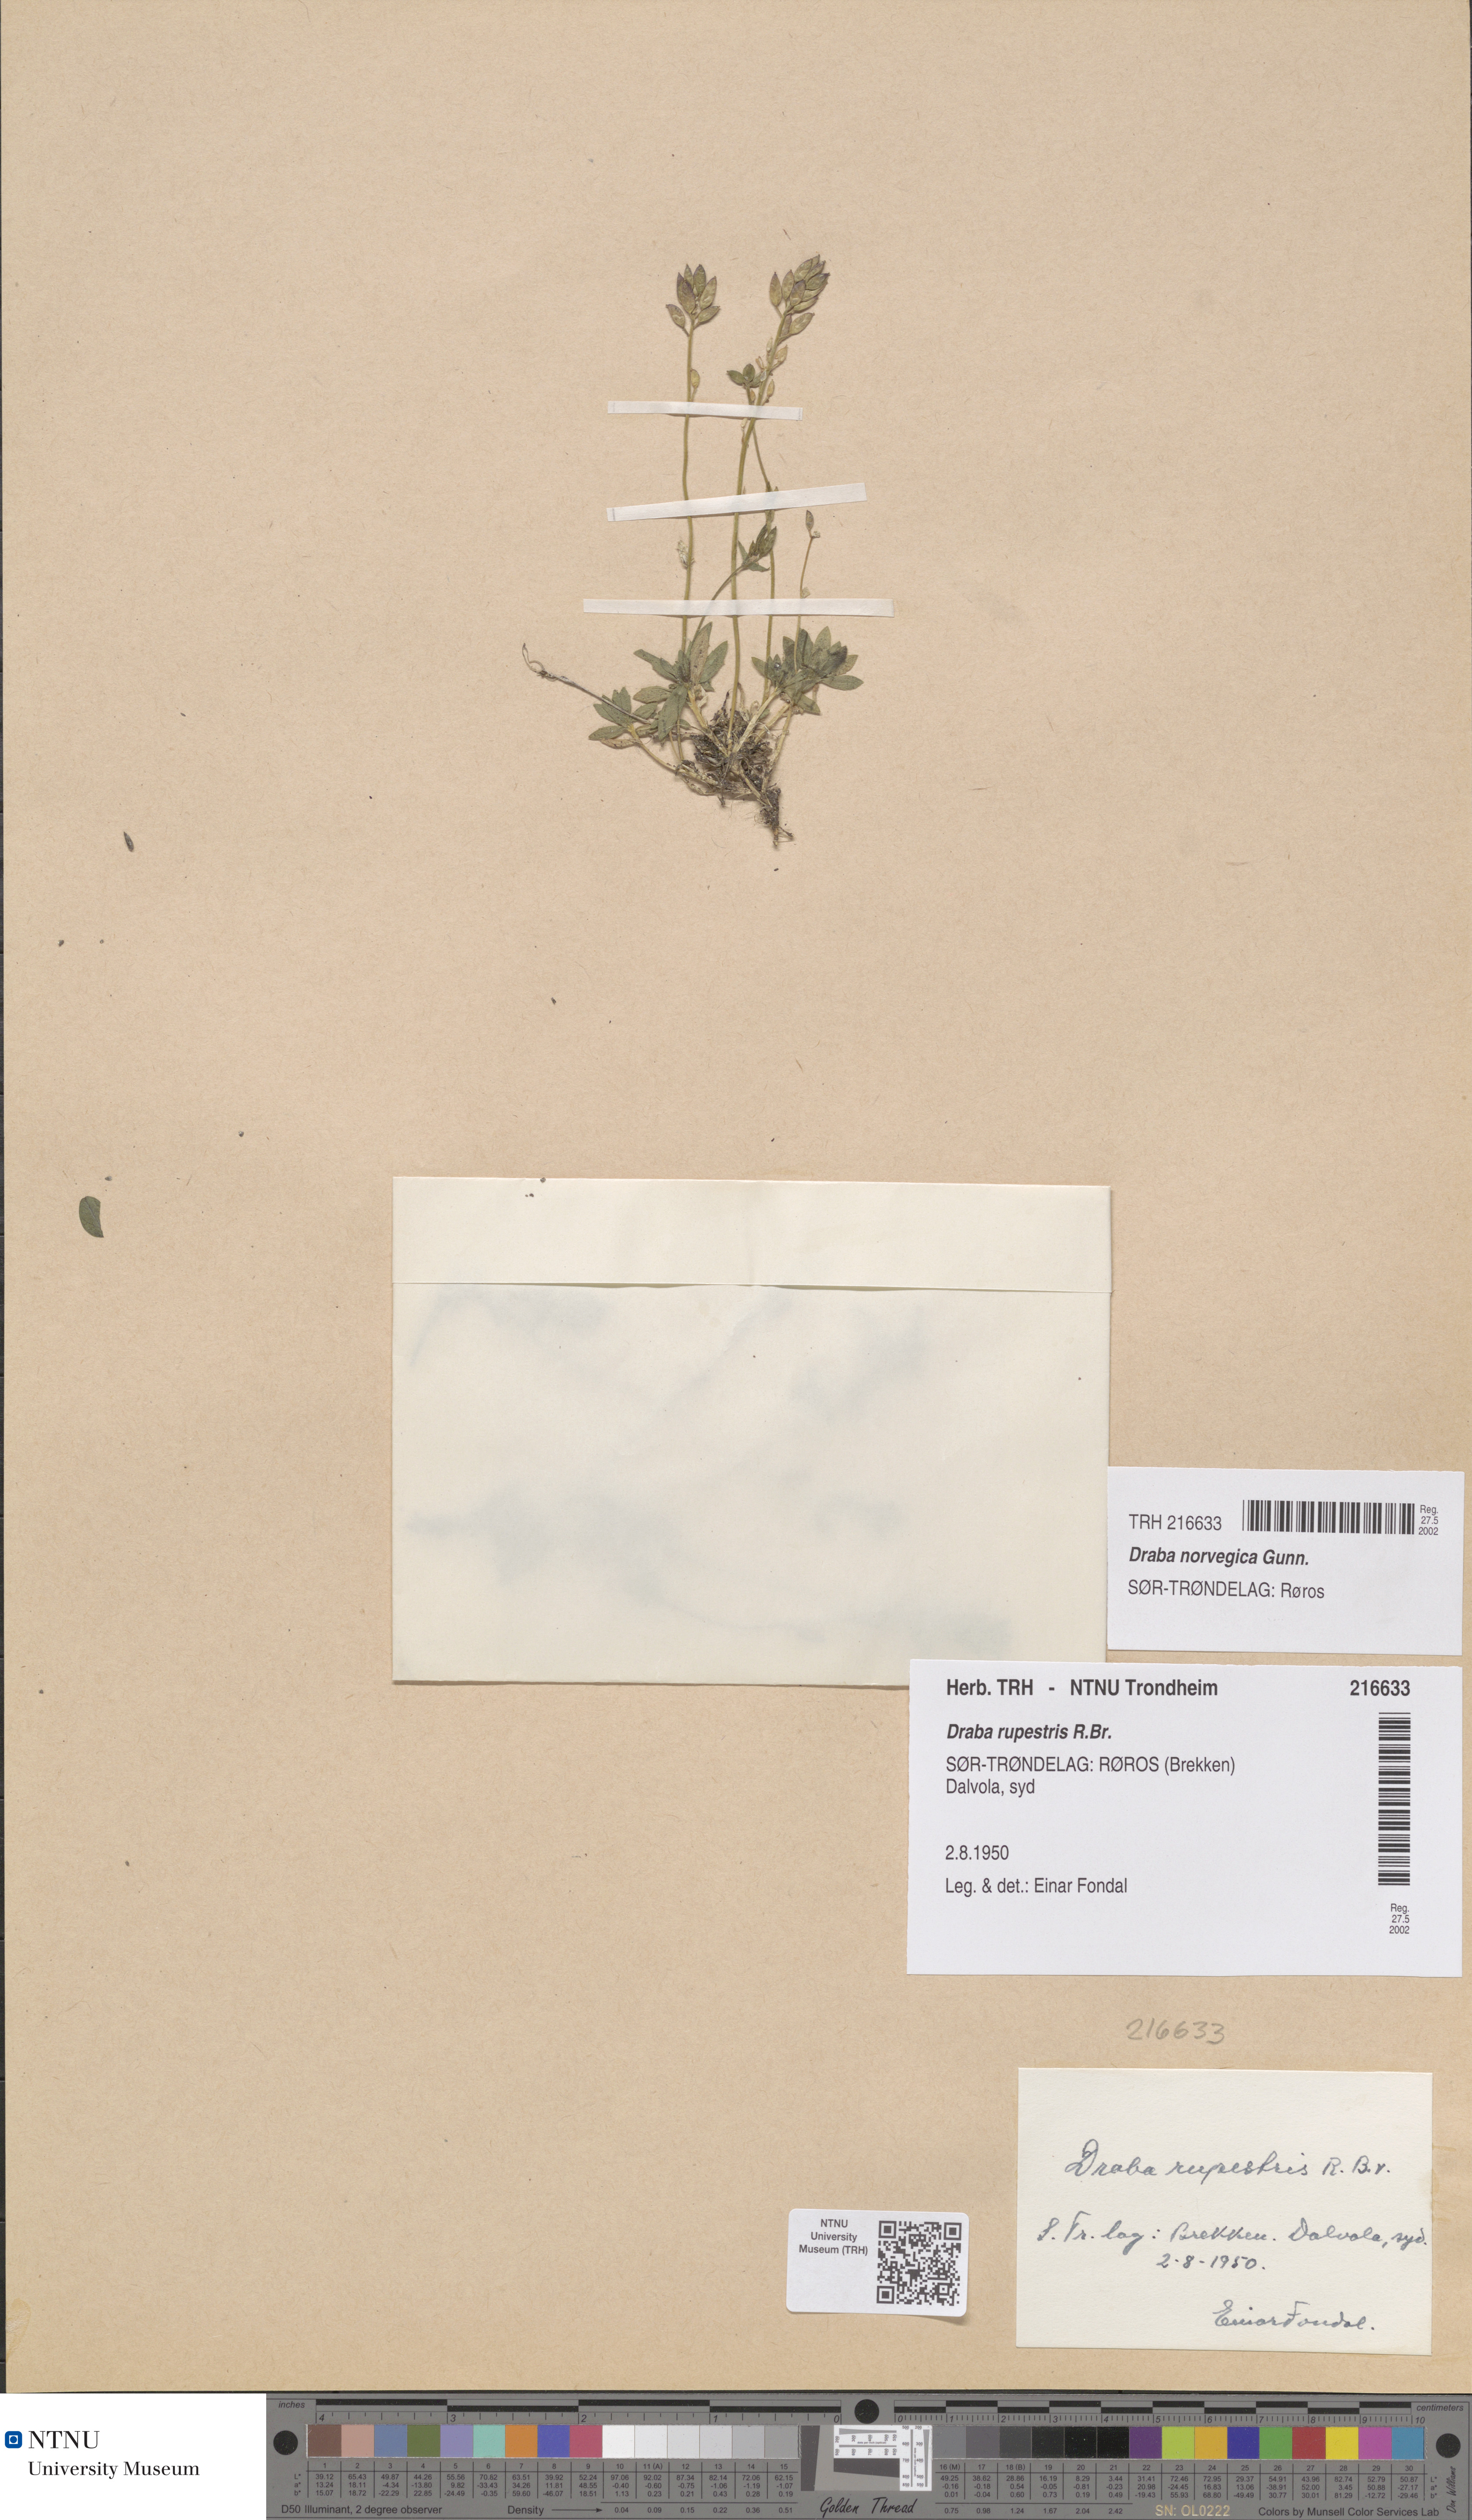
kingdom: Plantae
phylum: Tracheophyta
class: Magnoliopsida
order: Brassicales
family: Brassicaceae
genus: Draba
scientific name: Draba norvegica
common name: Rock whitlowgrass
